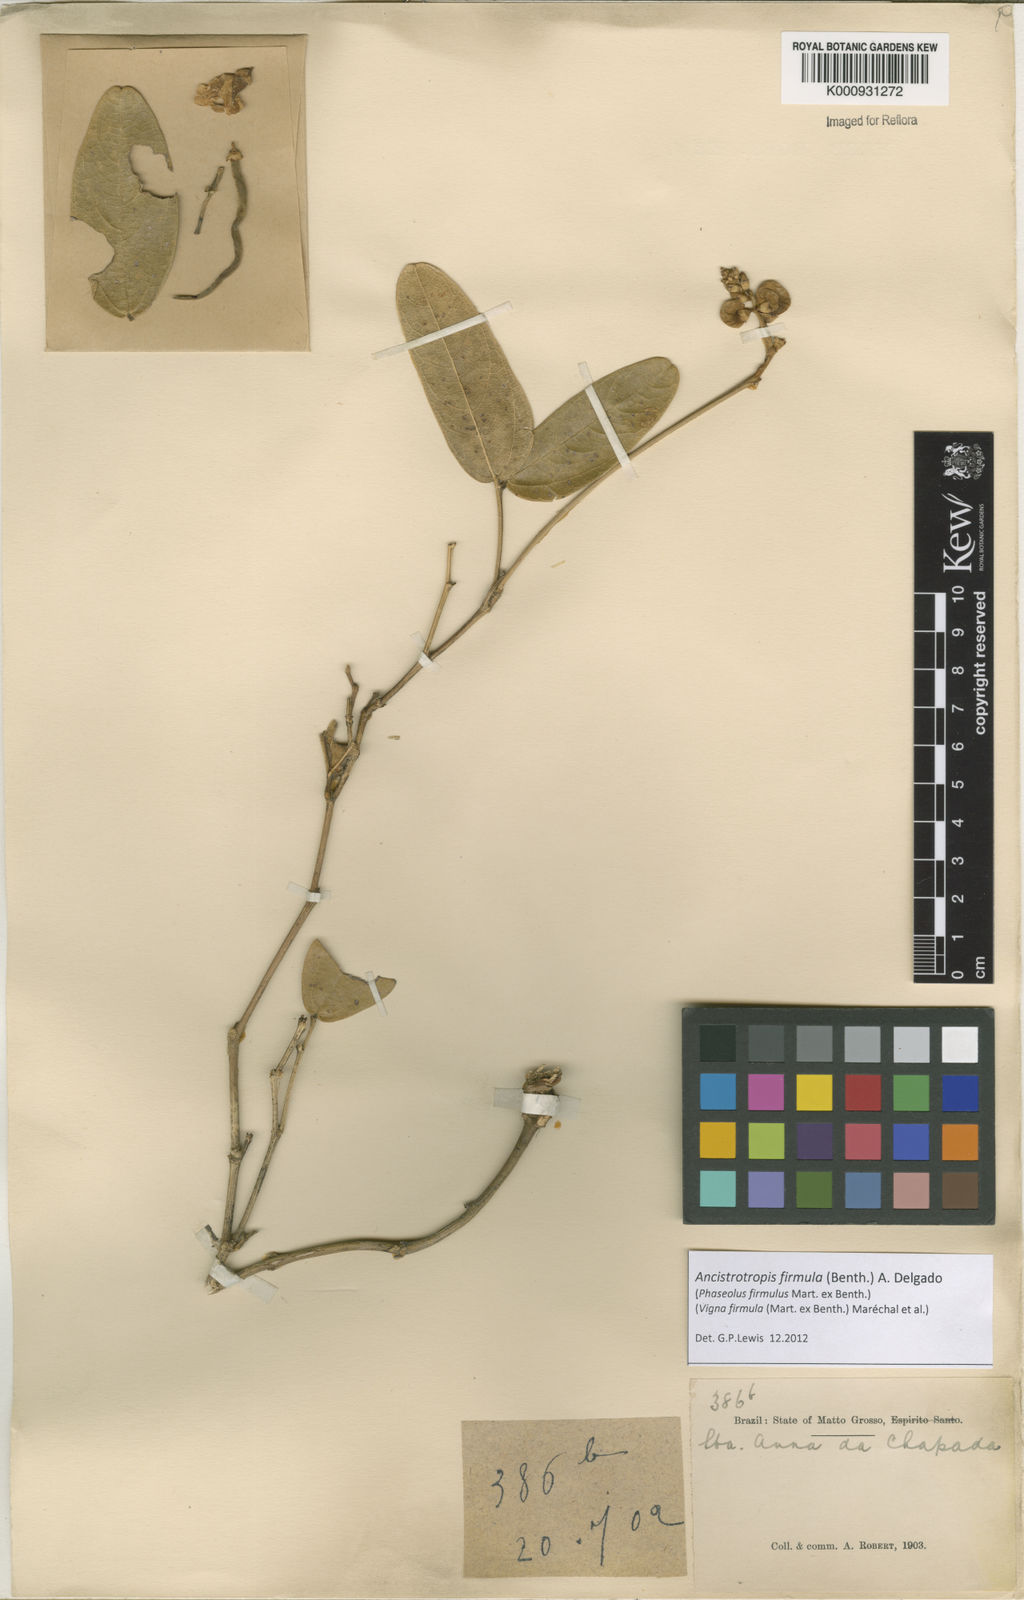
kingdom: Plantae
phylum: Tracheophyta
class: Magnoliopsida
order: Fabales
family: Fabaceae
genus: Ancistrotropis
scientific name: Ancistrotropis firmula
